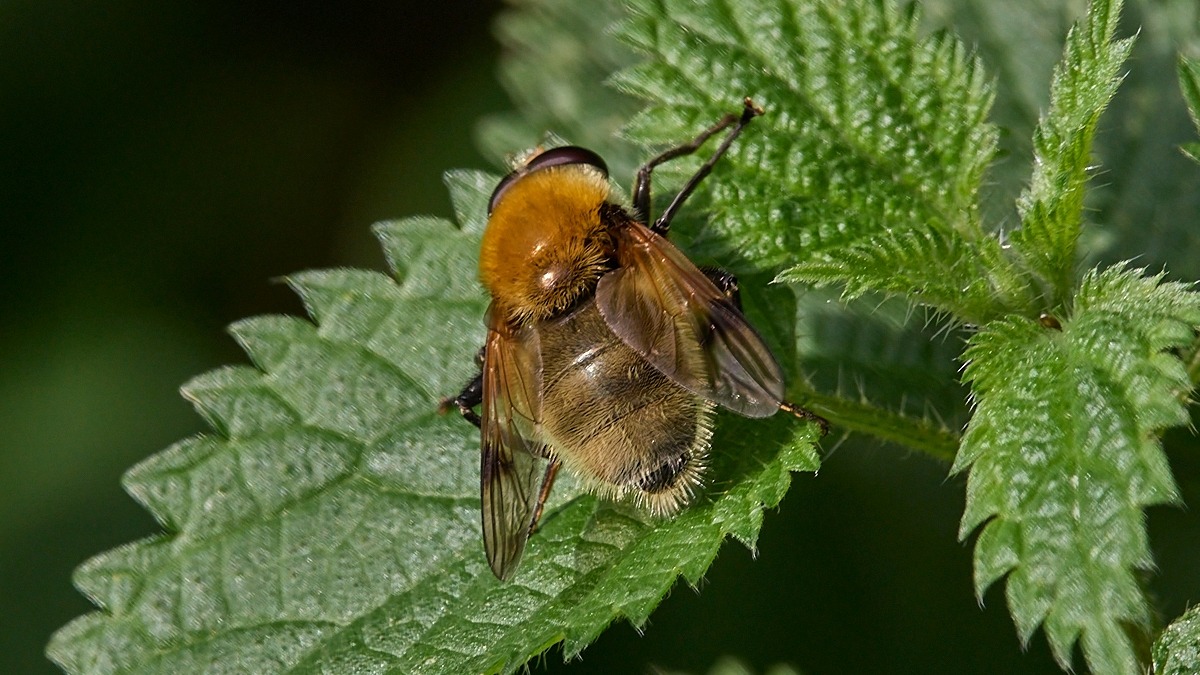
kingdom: Animalia
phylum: Arthropoda
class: Insecta
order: Diptera
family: Syrphidae
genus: Sericomyia
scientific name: Sericomyia superbiens
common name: Brun bjørnesvirreflue
